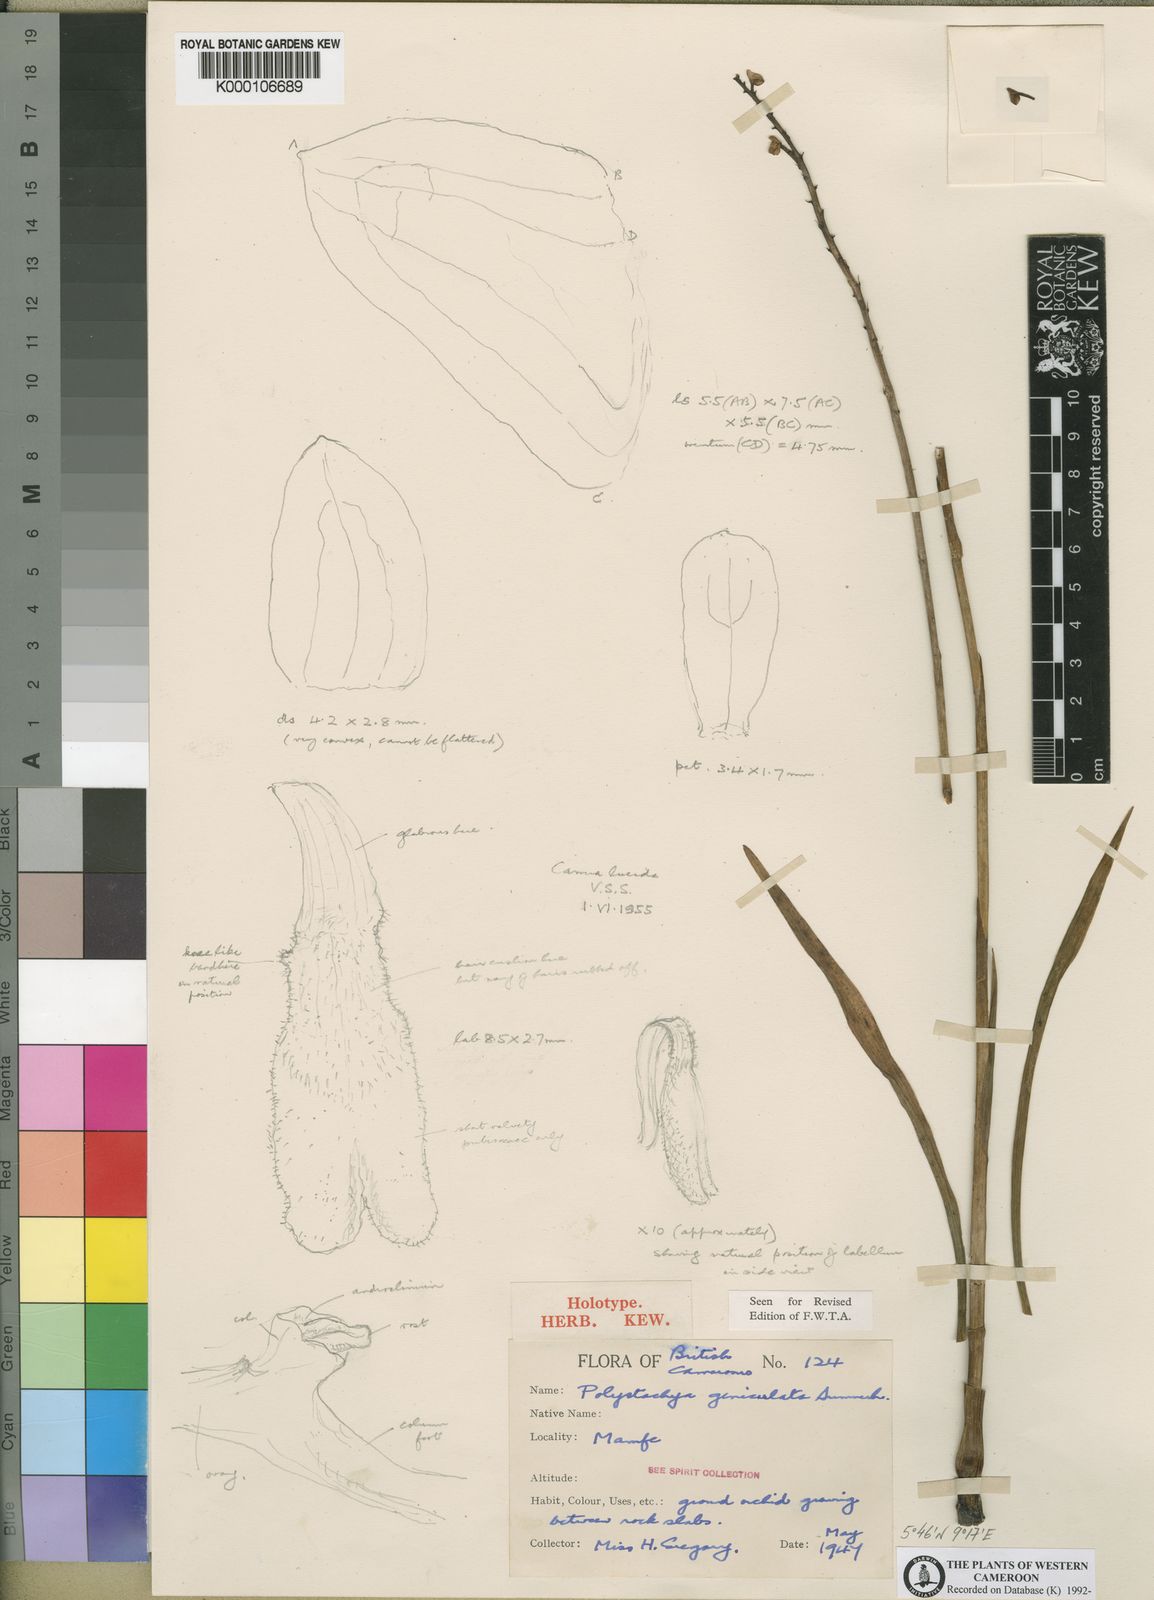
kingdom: Plantae
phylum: Tracheophyta
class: Liliopsida
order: Asparagales
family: Orchidaceae
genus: Polystachya
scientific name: Polystachya geniculata
